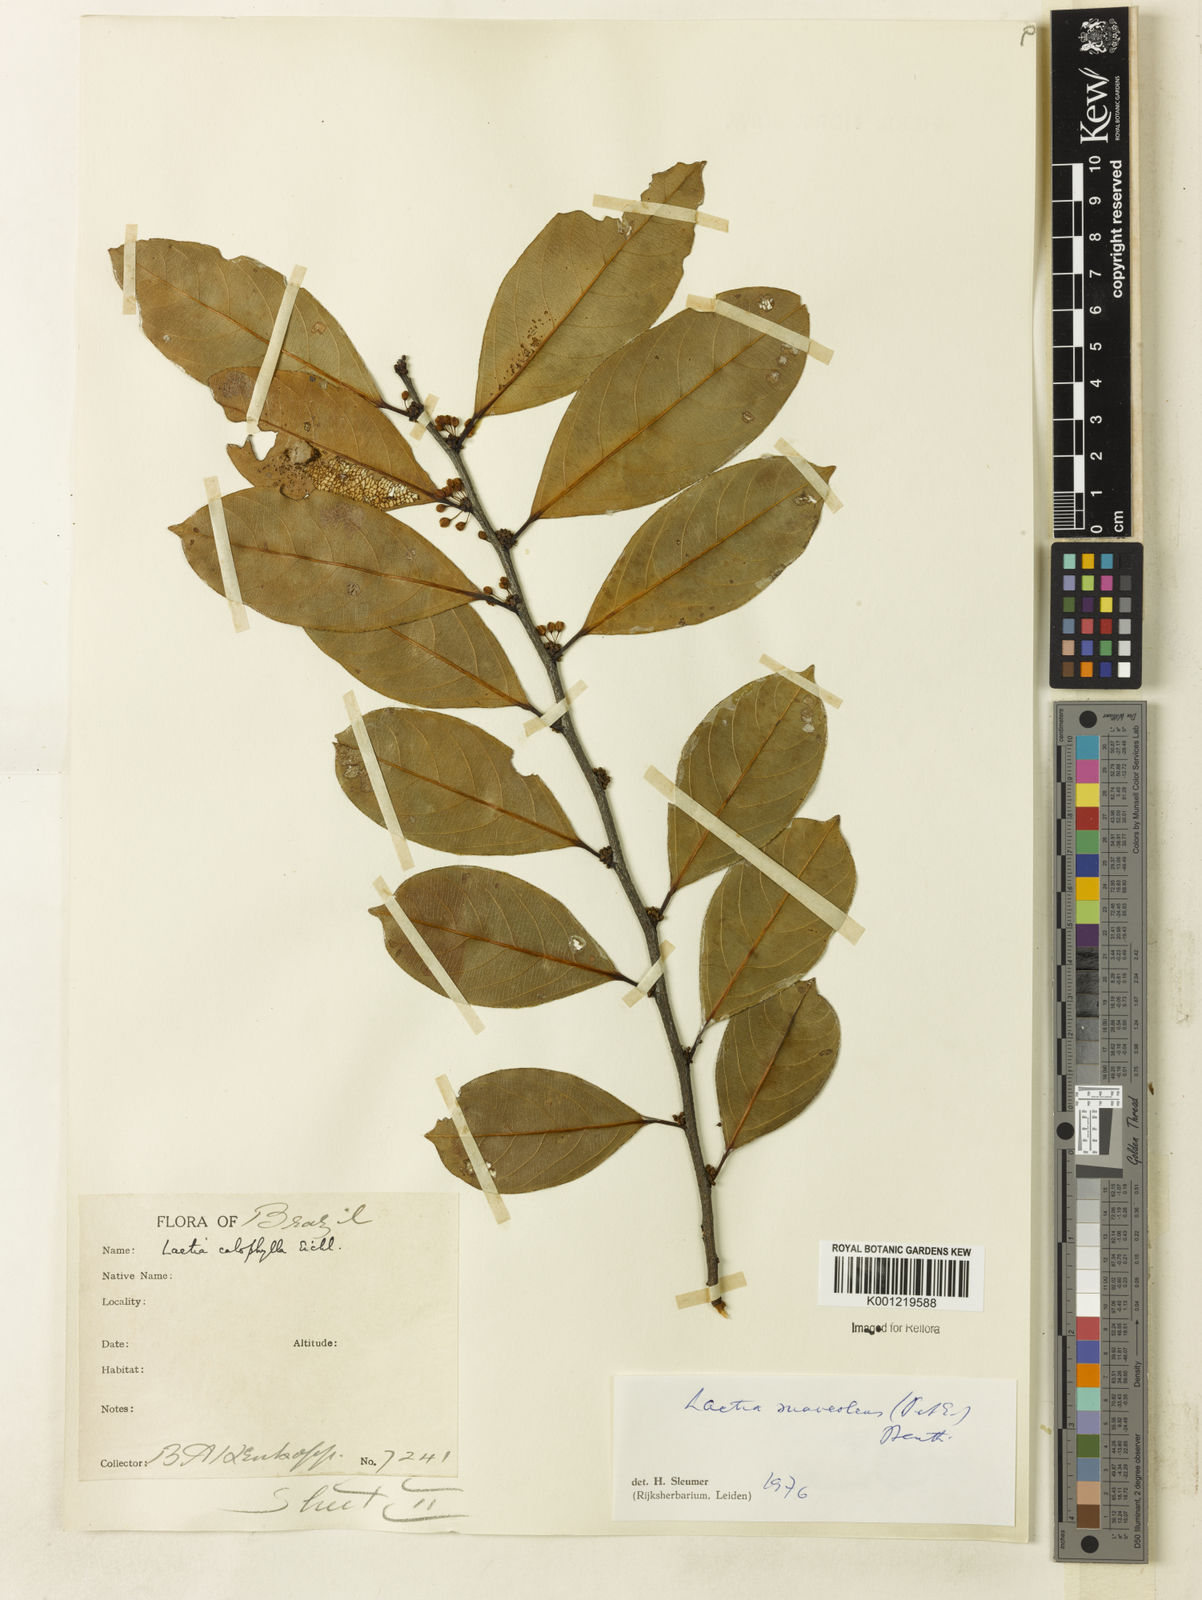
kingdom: Plantae
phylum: Tracheophyta
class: Magnoliopsida
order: Malpighiales
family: Salicaceae
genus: Casearia
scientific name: Casearia suaveolens
